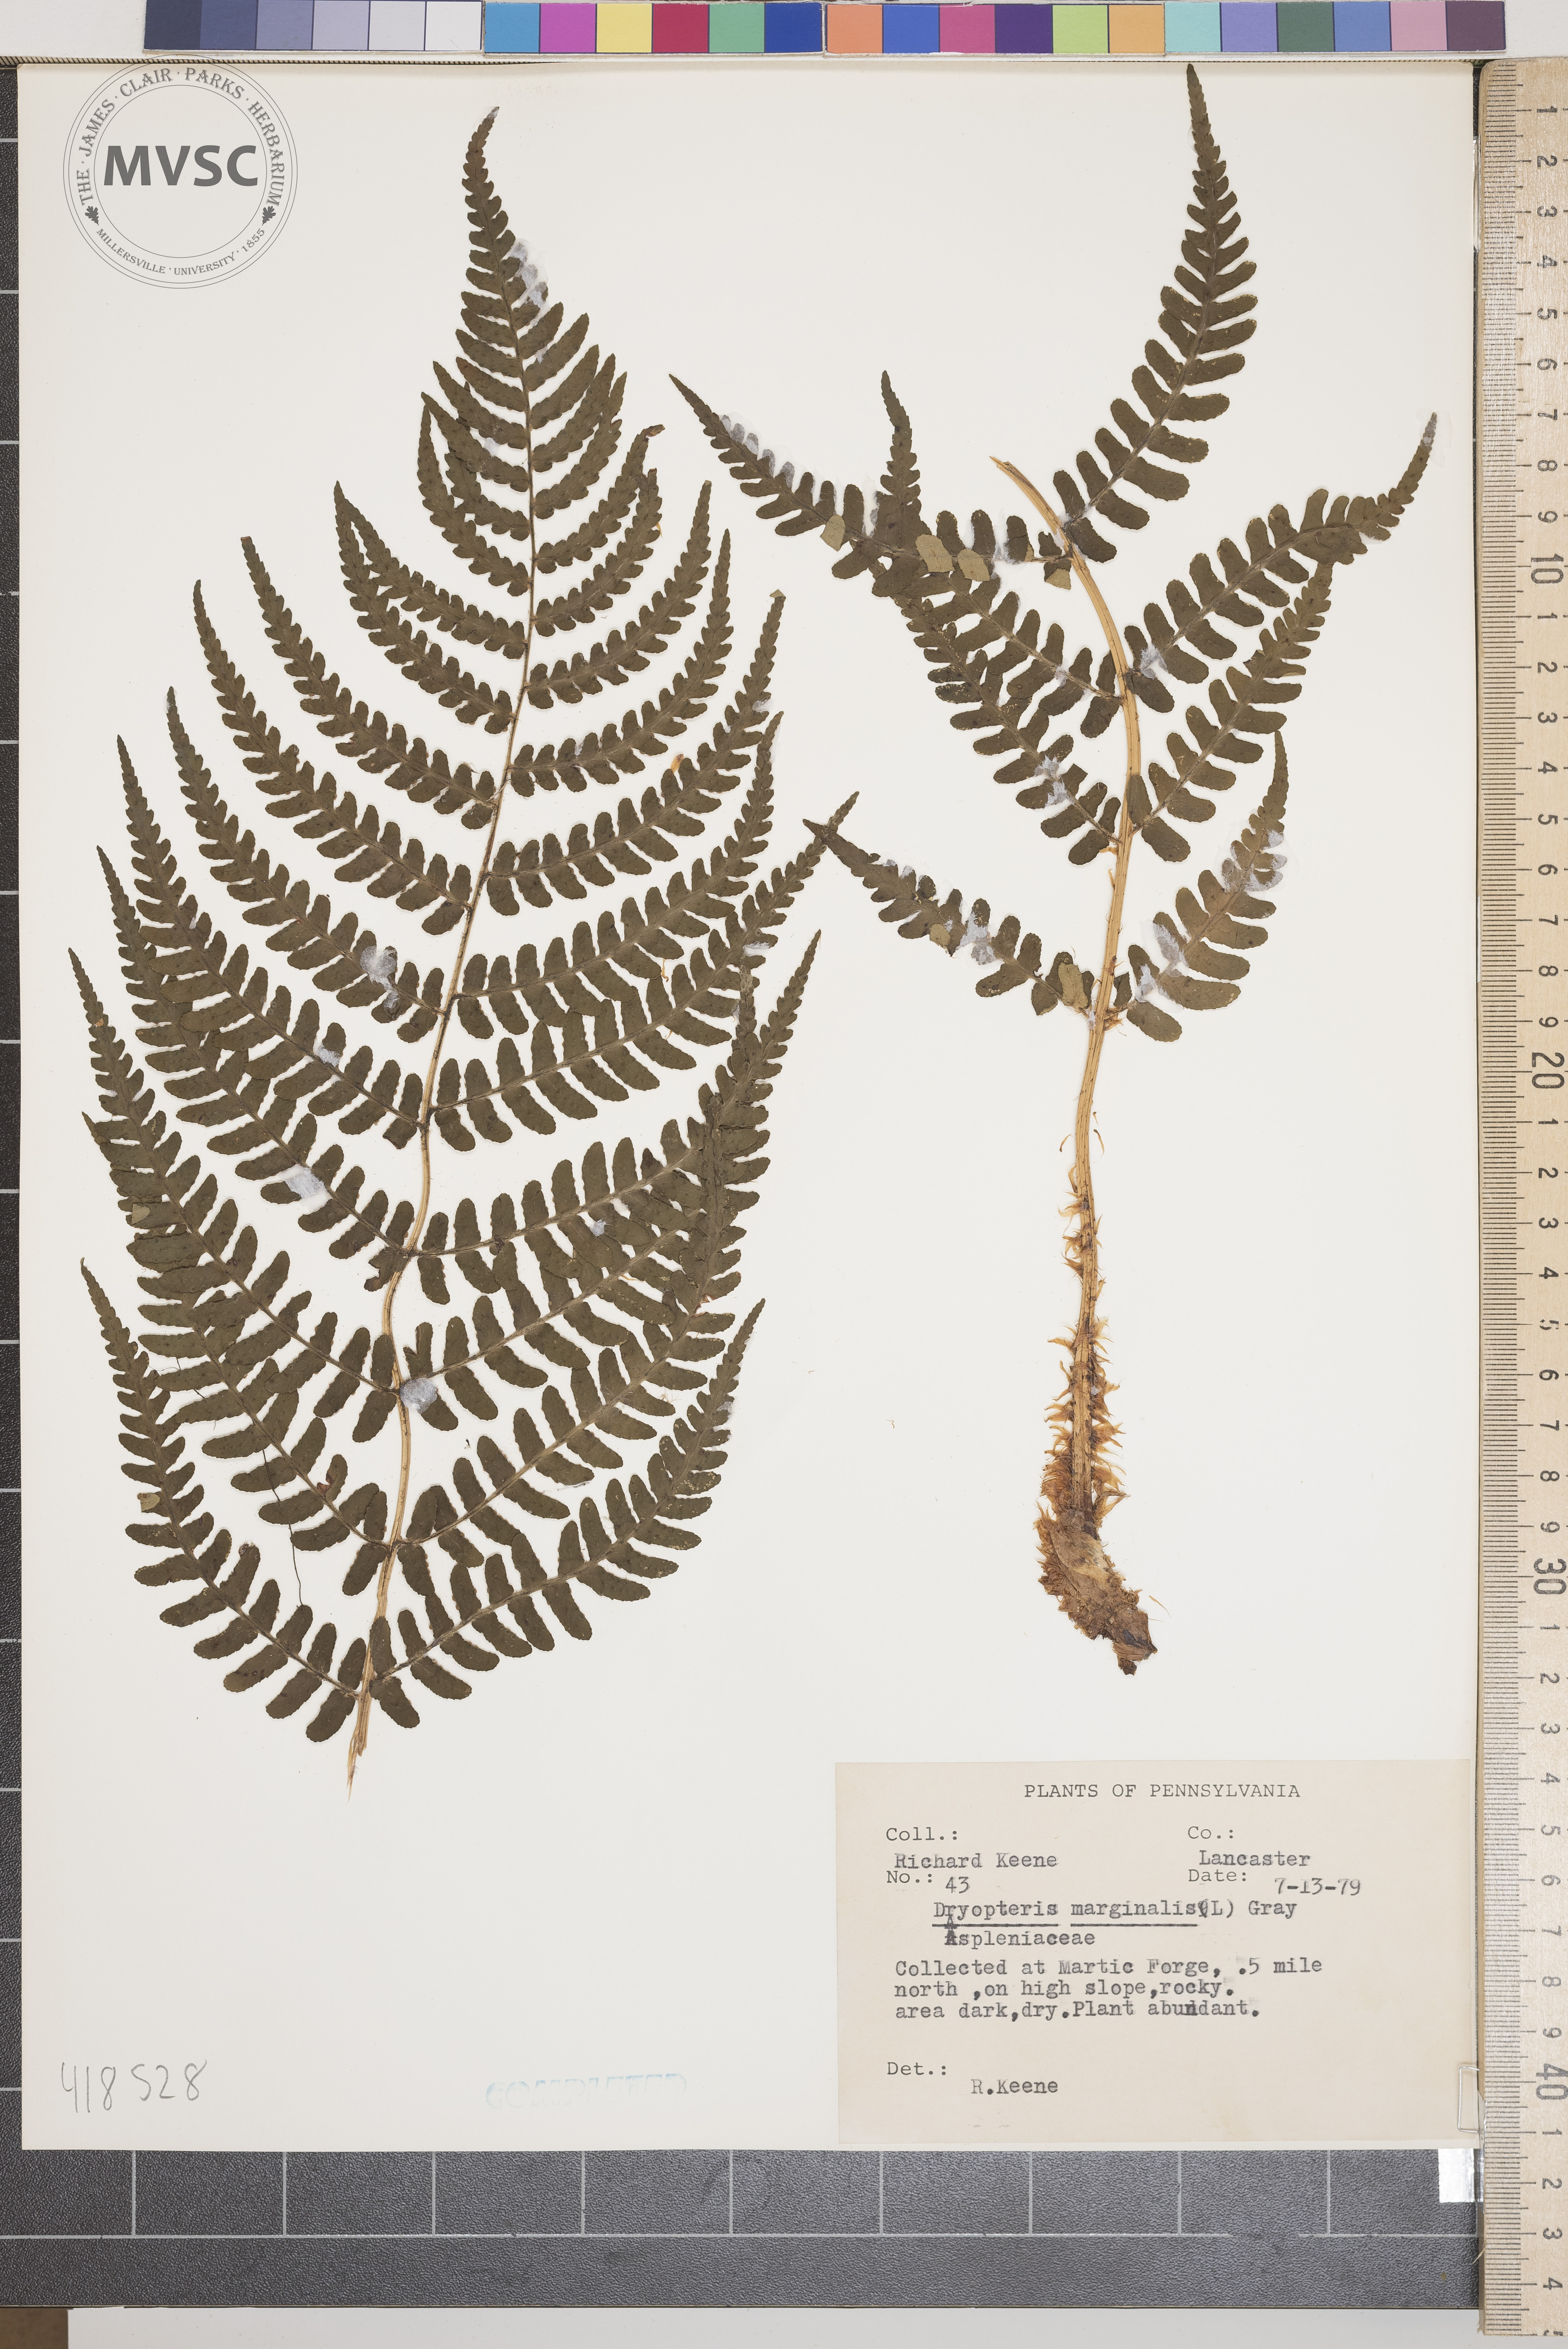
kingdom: Plantae
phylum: Tracheophyta
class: Polypodiopsida
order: Polypodiales
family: Dryopteridaceae
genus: Dryopteris
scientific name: Dryopteris marginalis
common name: Marginal shield fern
